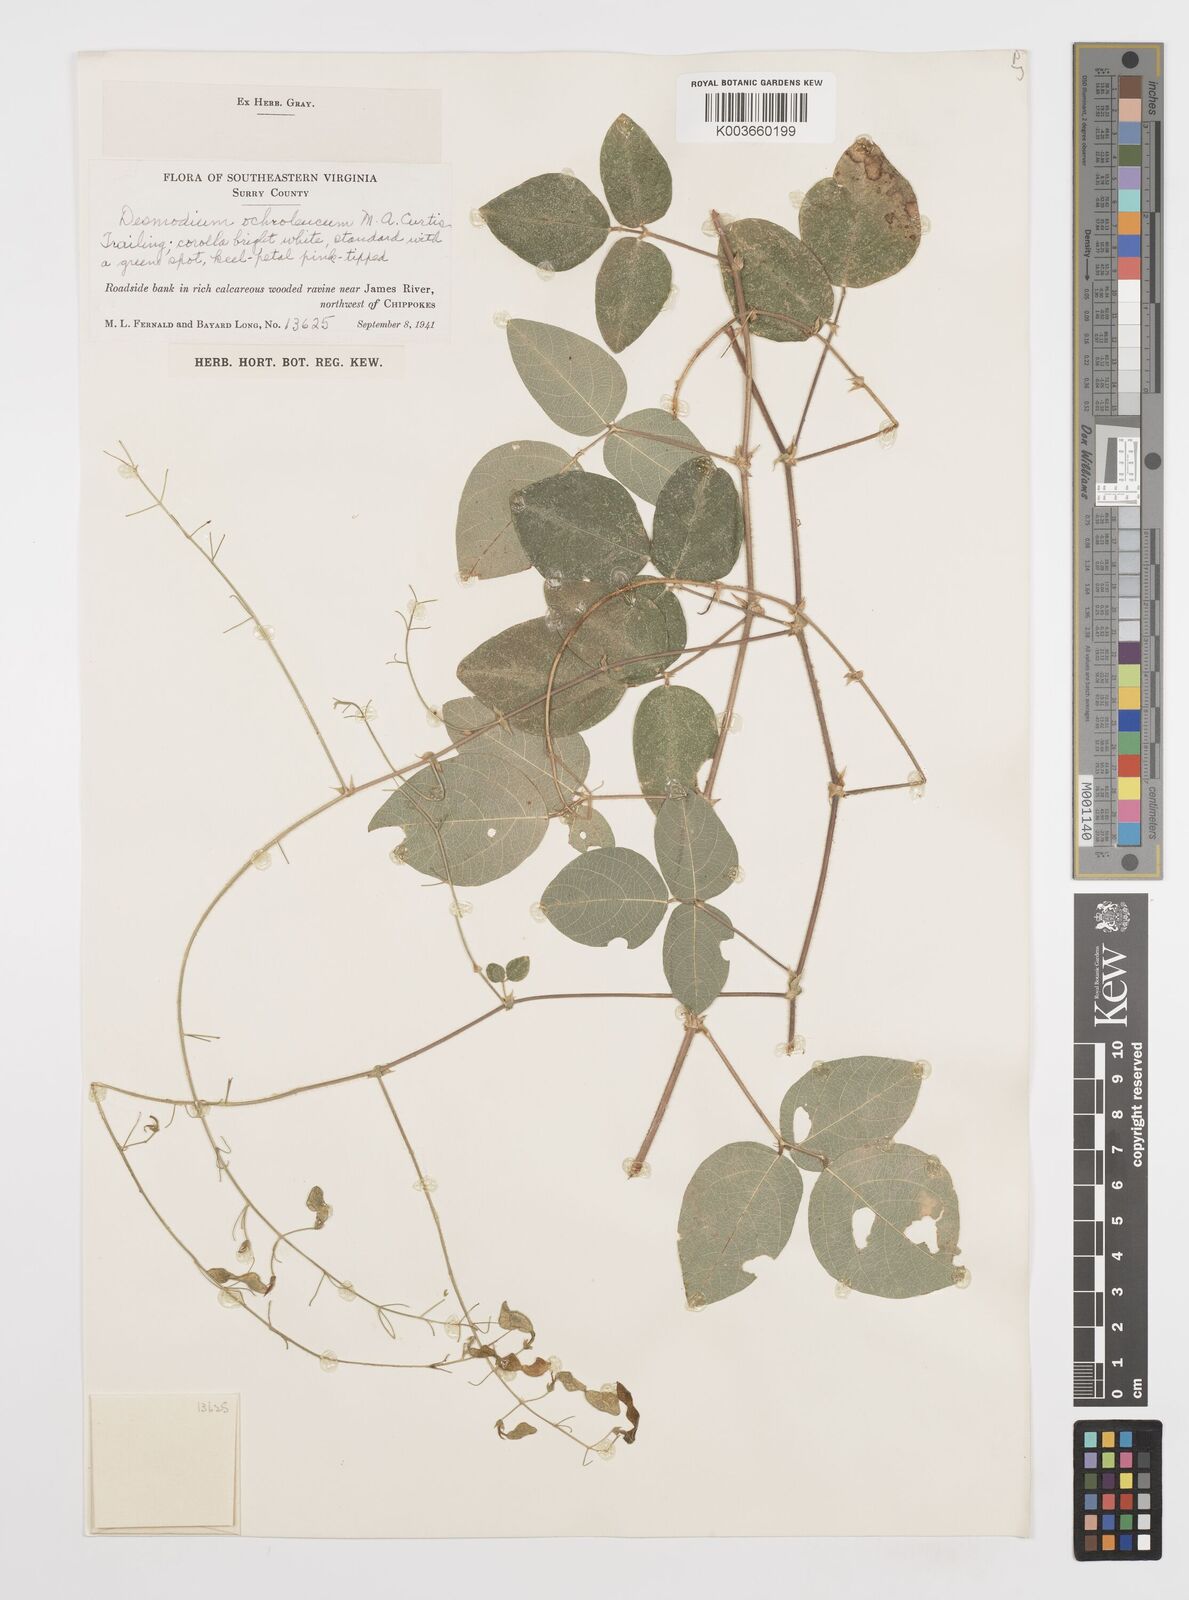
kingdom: Plantae
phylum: Tracheophyta
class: Magnoliopsida
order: Fabales
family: Fabaceae
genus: Desmodium
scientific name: Desmodium ochroleucum
